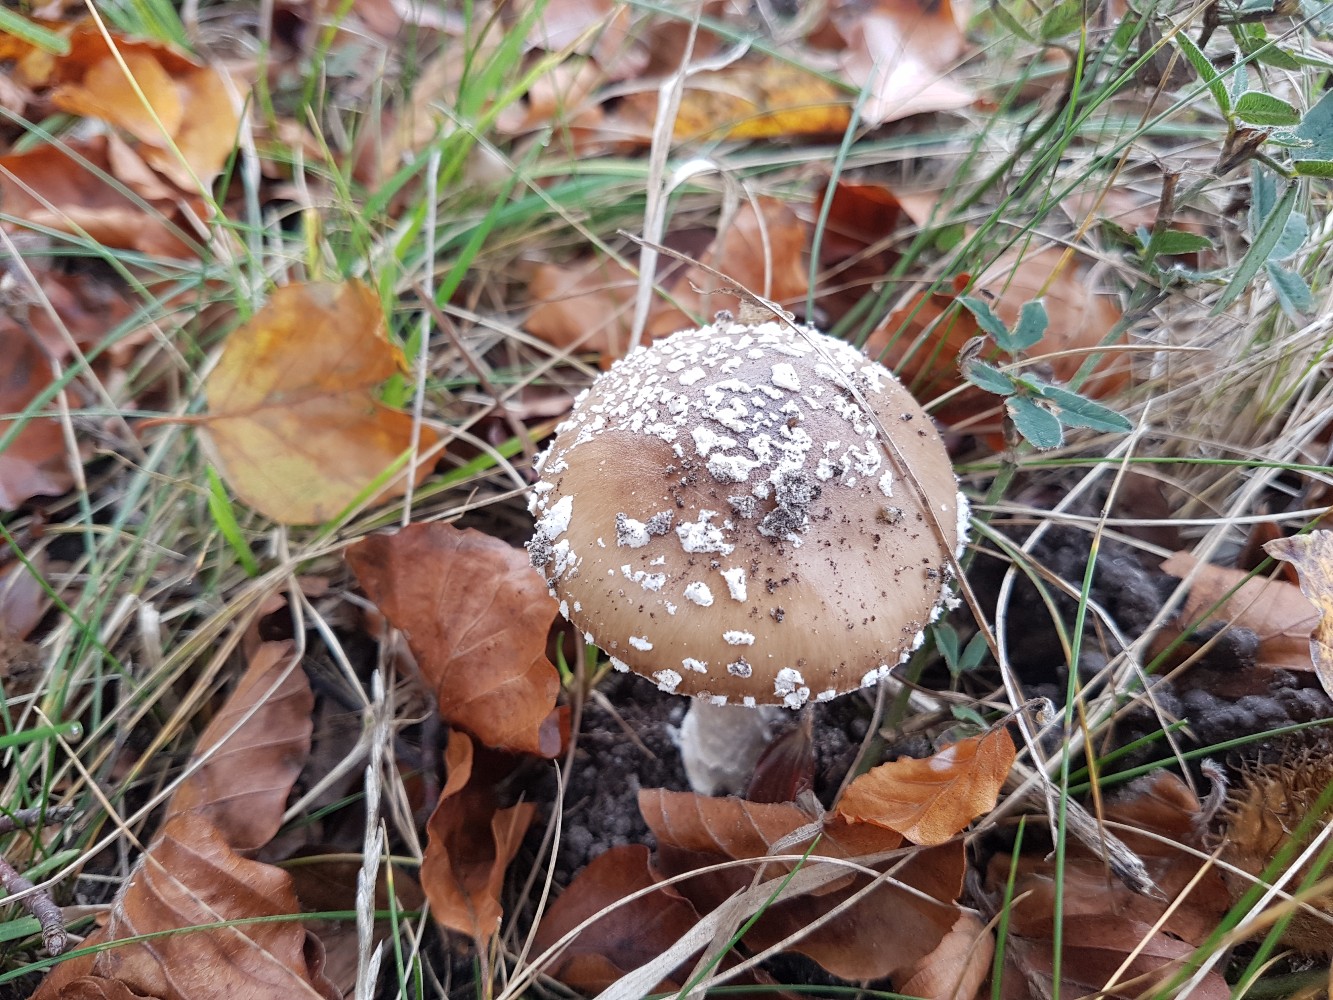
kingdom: Fungi
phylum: Basidiomycota
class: Agaricomycetes
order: Agaricales
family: Amanitaceae
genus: Amanita
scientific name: Amanita pantherina
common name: panter-fluesvamp
